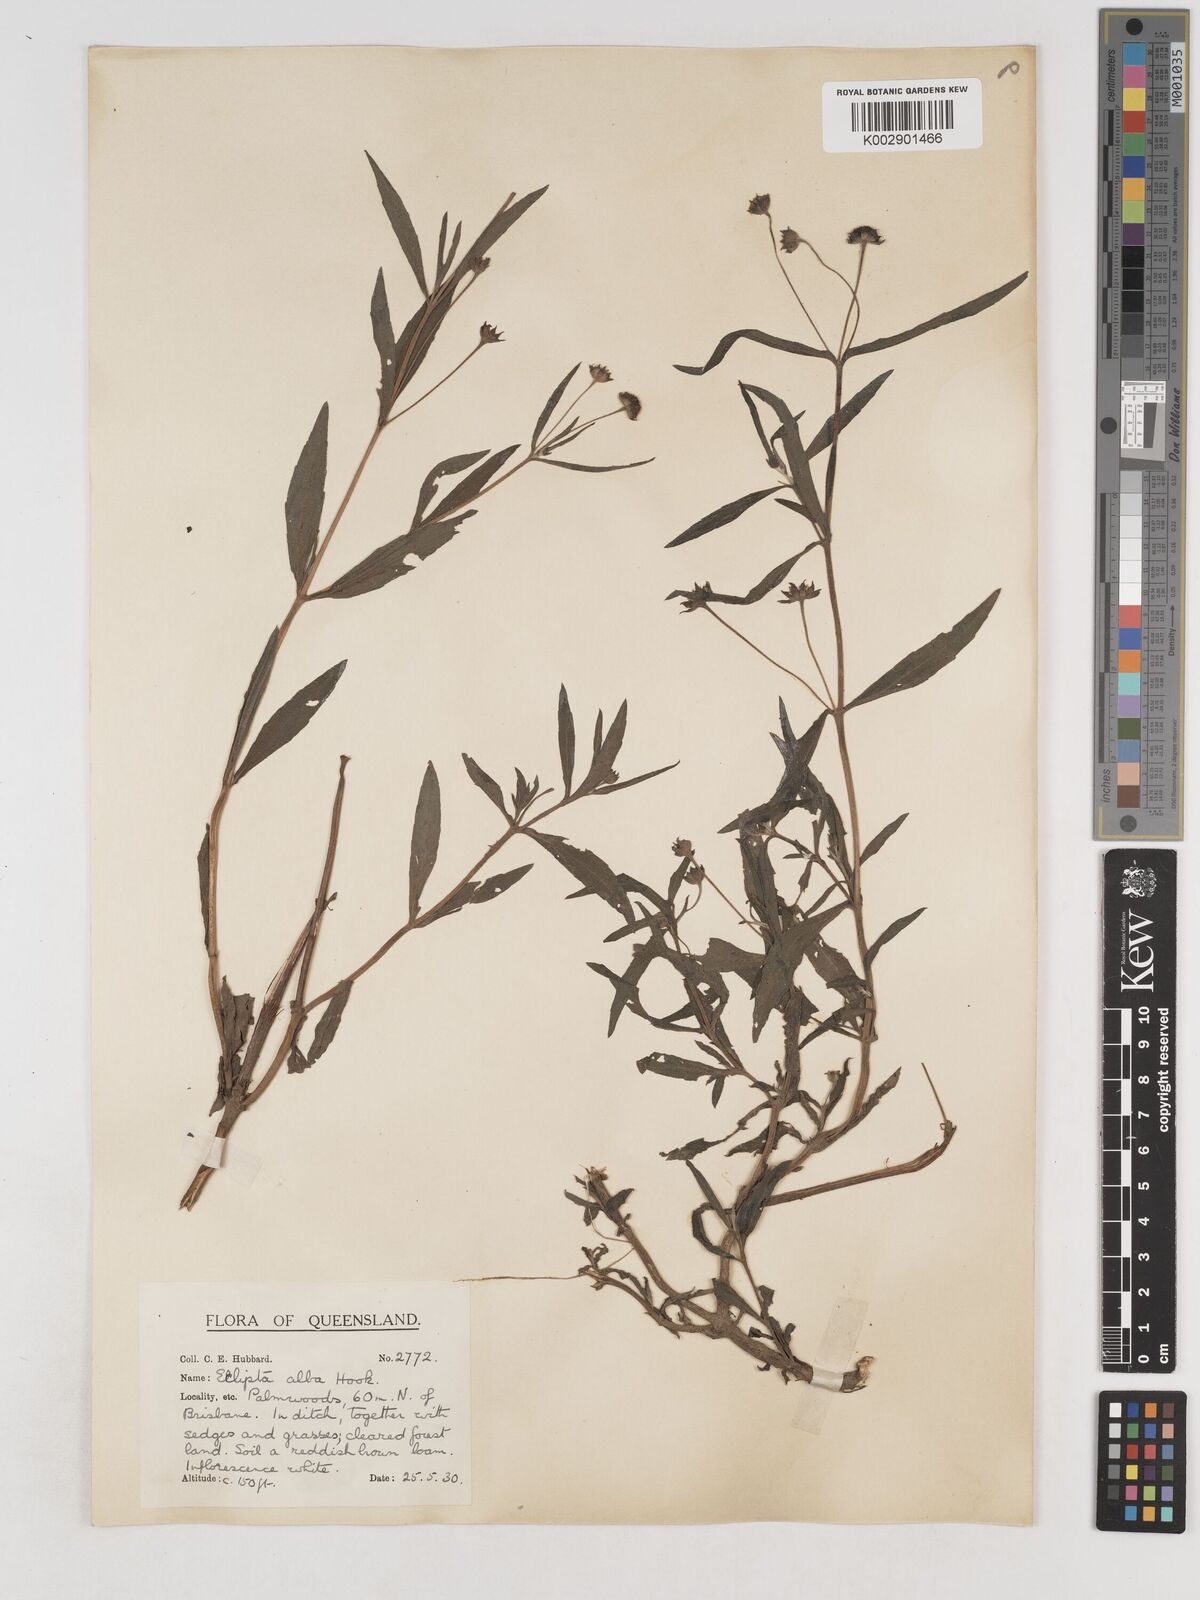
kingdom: Plantae
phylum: Tracheophyta
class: Magnoliopsida
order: Asterales
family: Asteraceae
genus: Eclipta
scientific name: Eclipta alba
